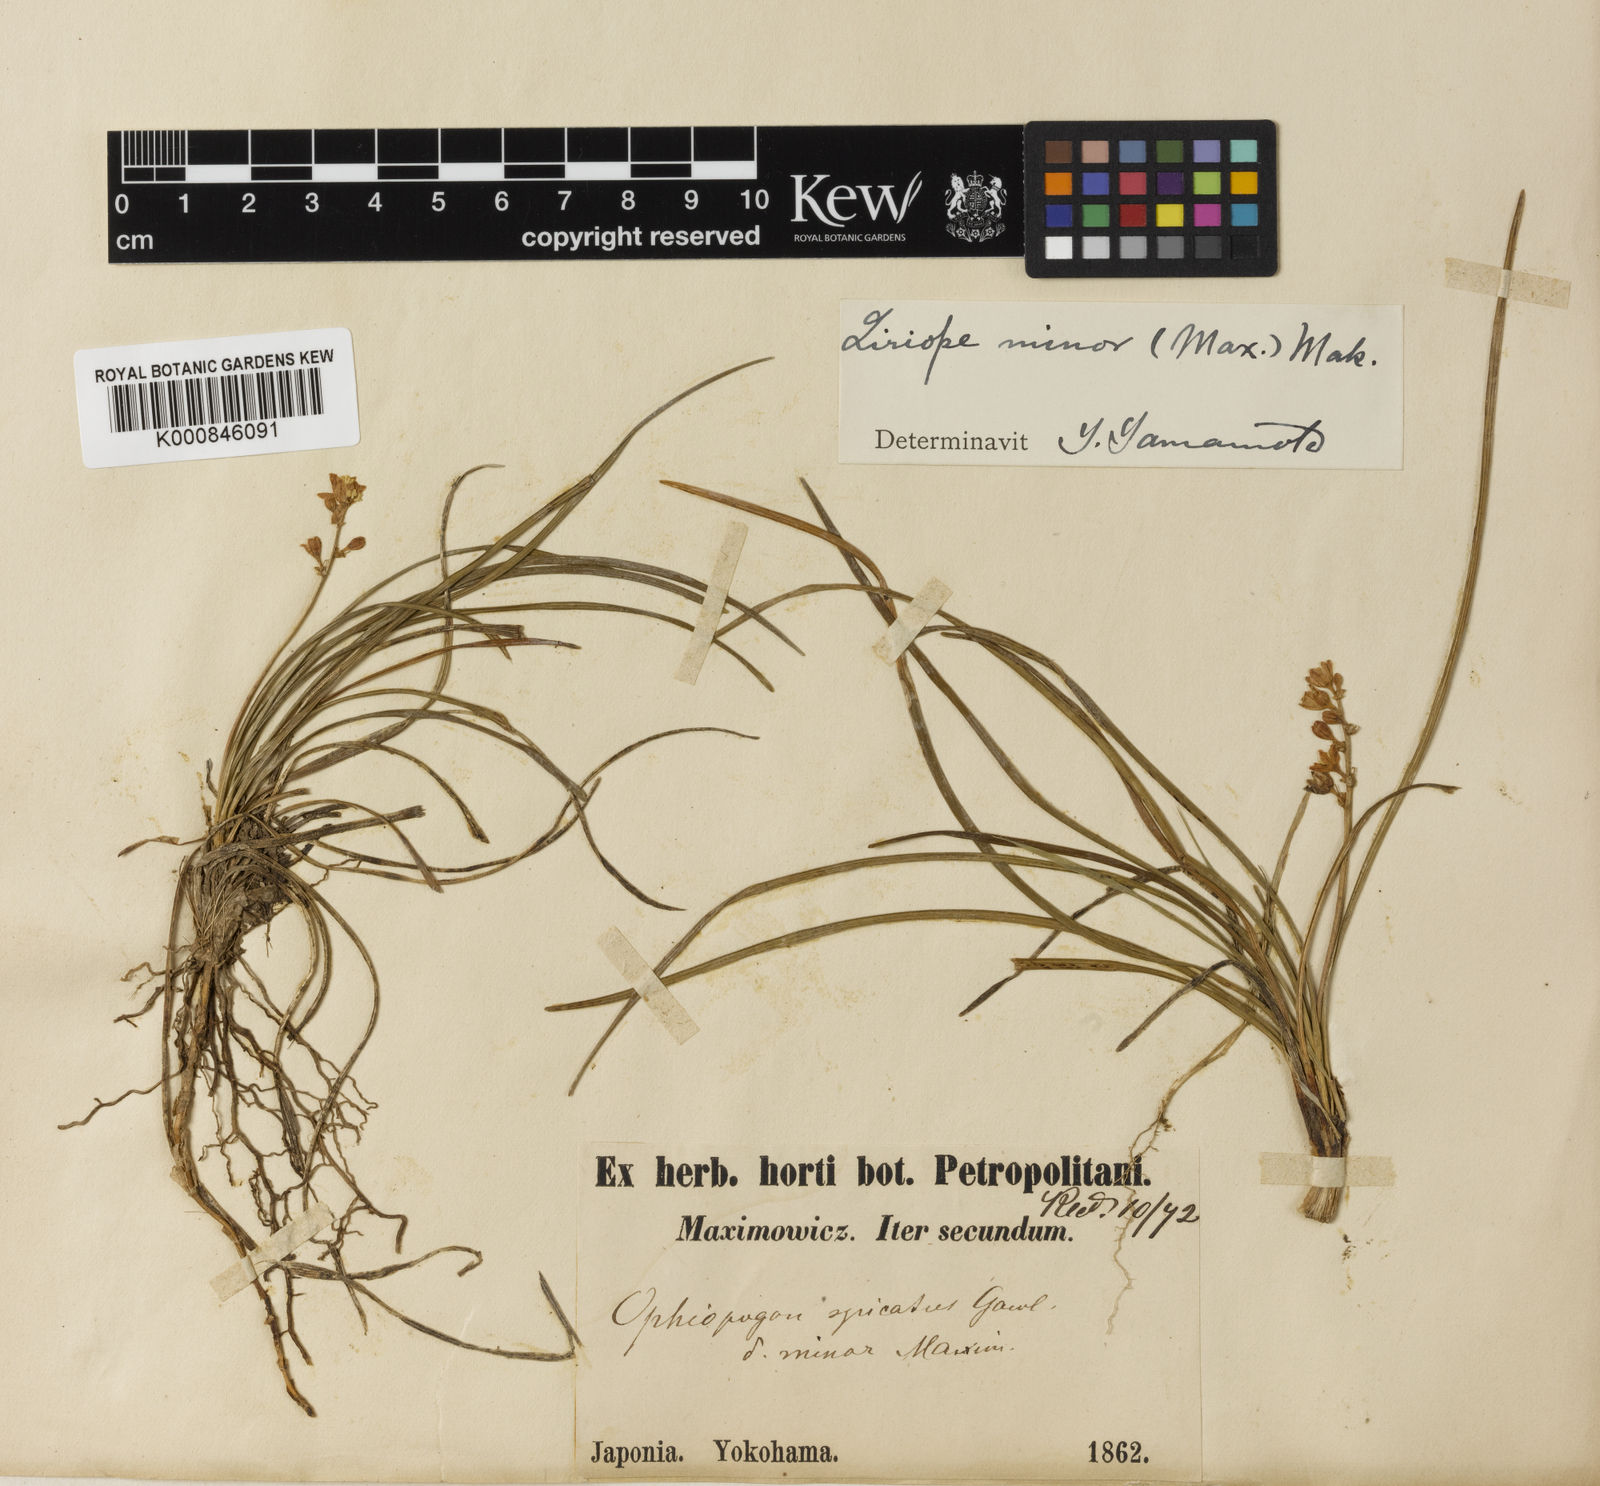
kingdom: Plantae
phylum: Tracheophyta
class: Liliopsida
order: Asparagales
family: Asparagaceae
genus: Liriope
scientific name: Liriope minor
